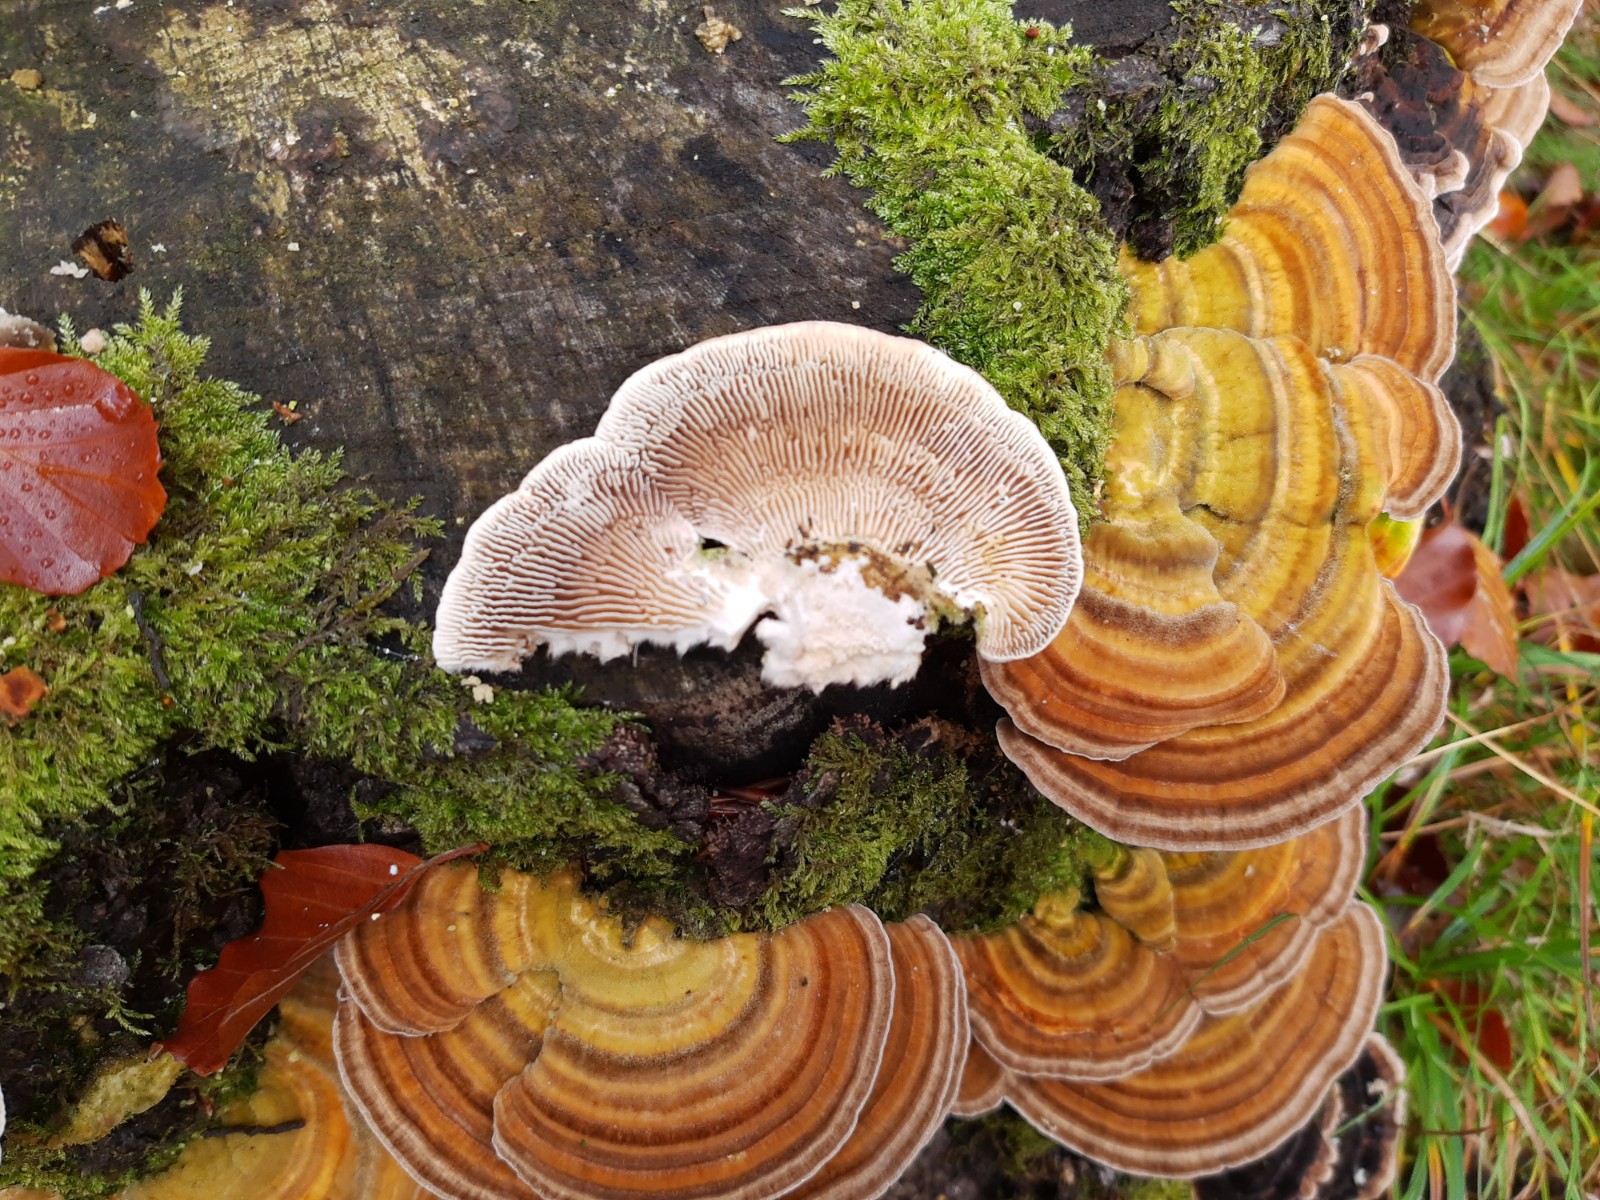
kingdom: Fungi
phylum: Basidiomycota
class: Agaricomycetes
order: Polyporales
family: Polyporaceae
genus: Lenzites
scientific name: Lenzites betulinus
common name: birke-læderporesvamp
